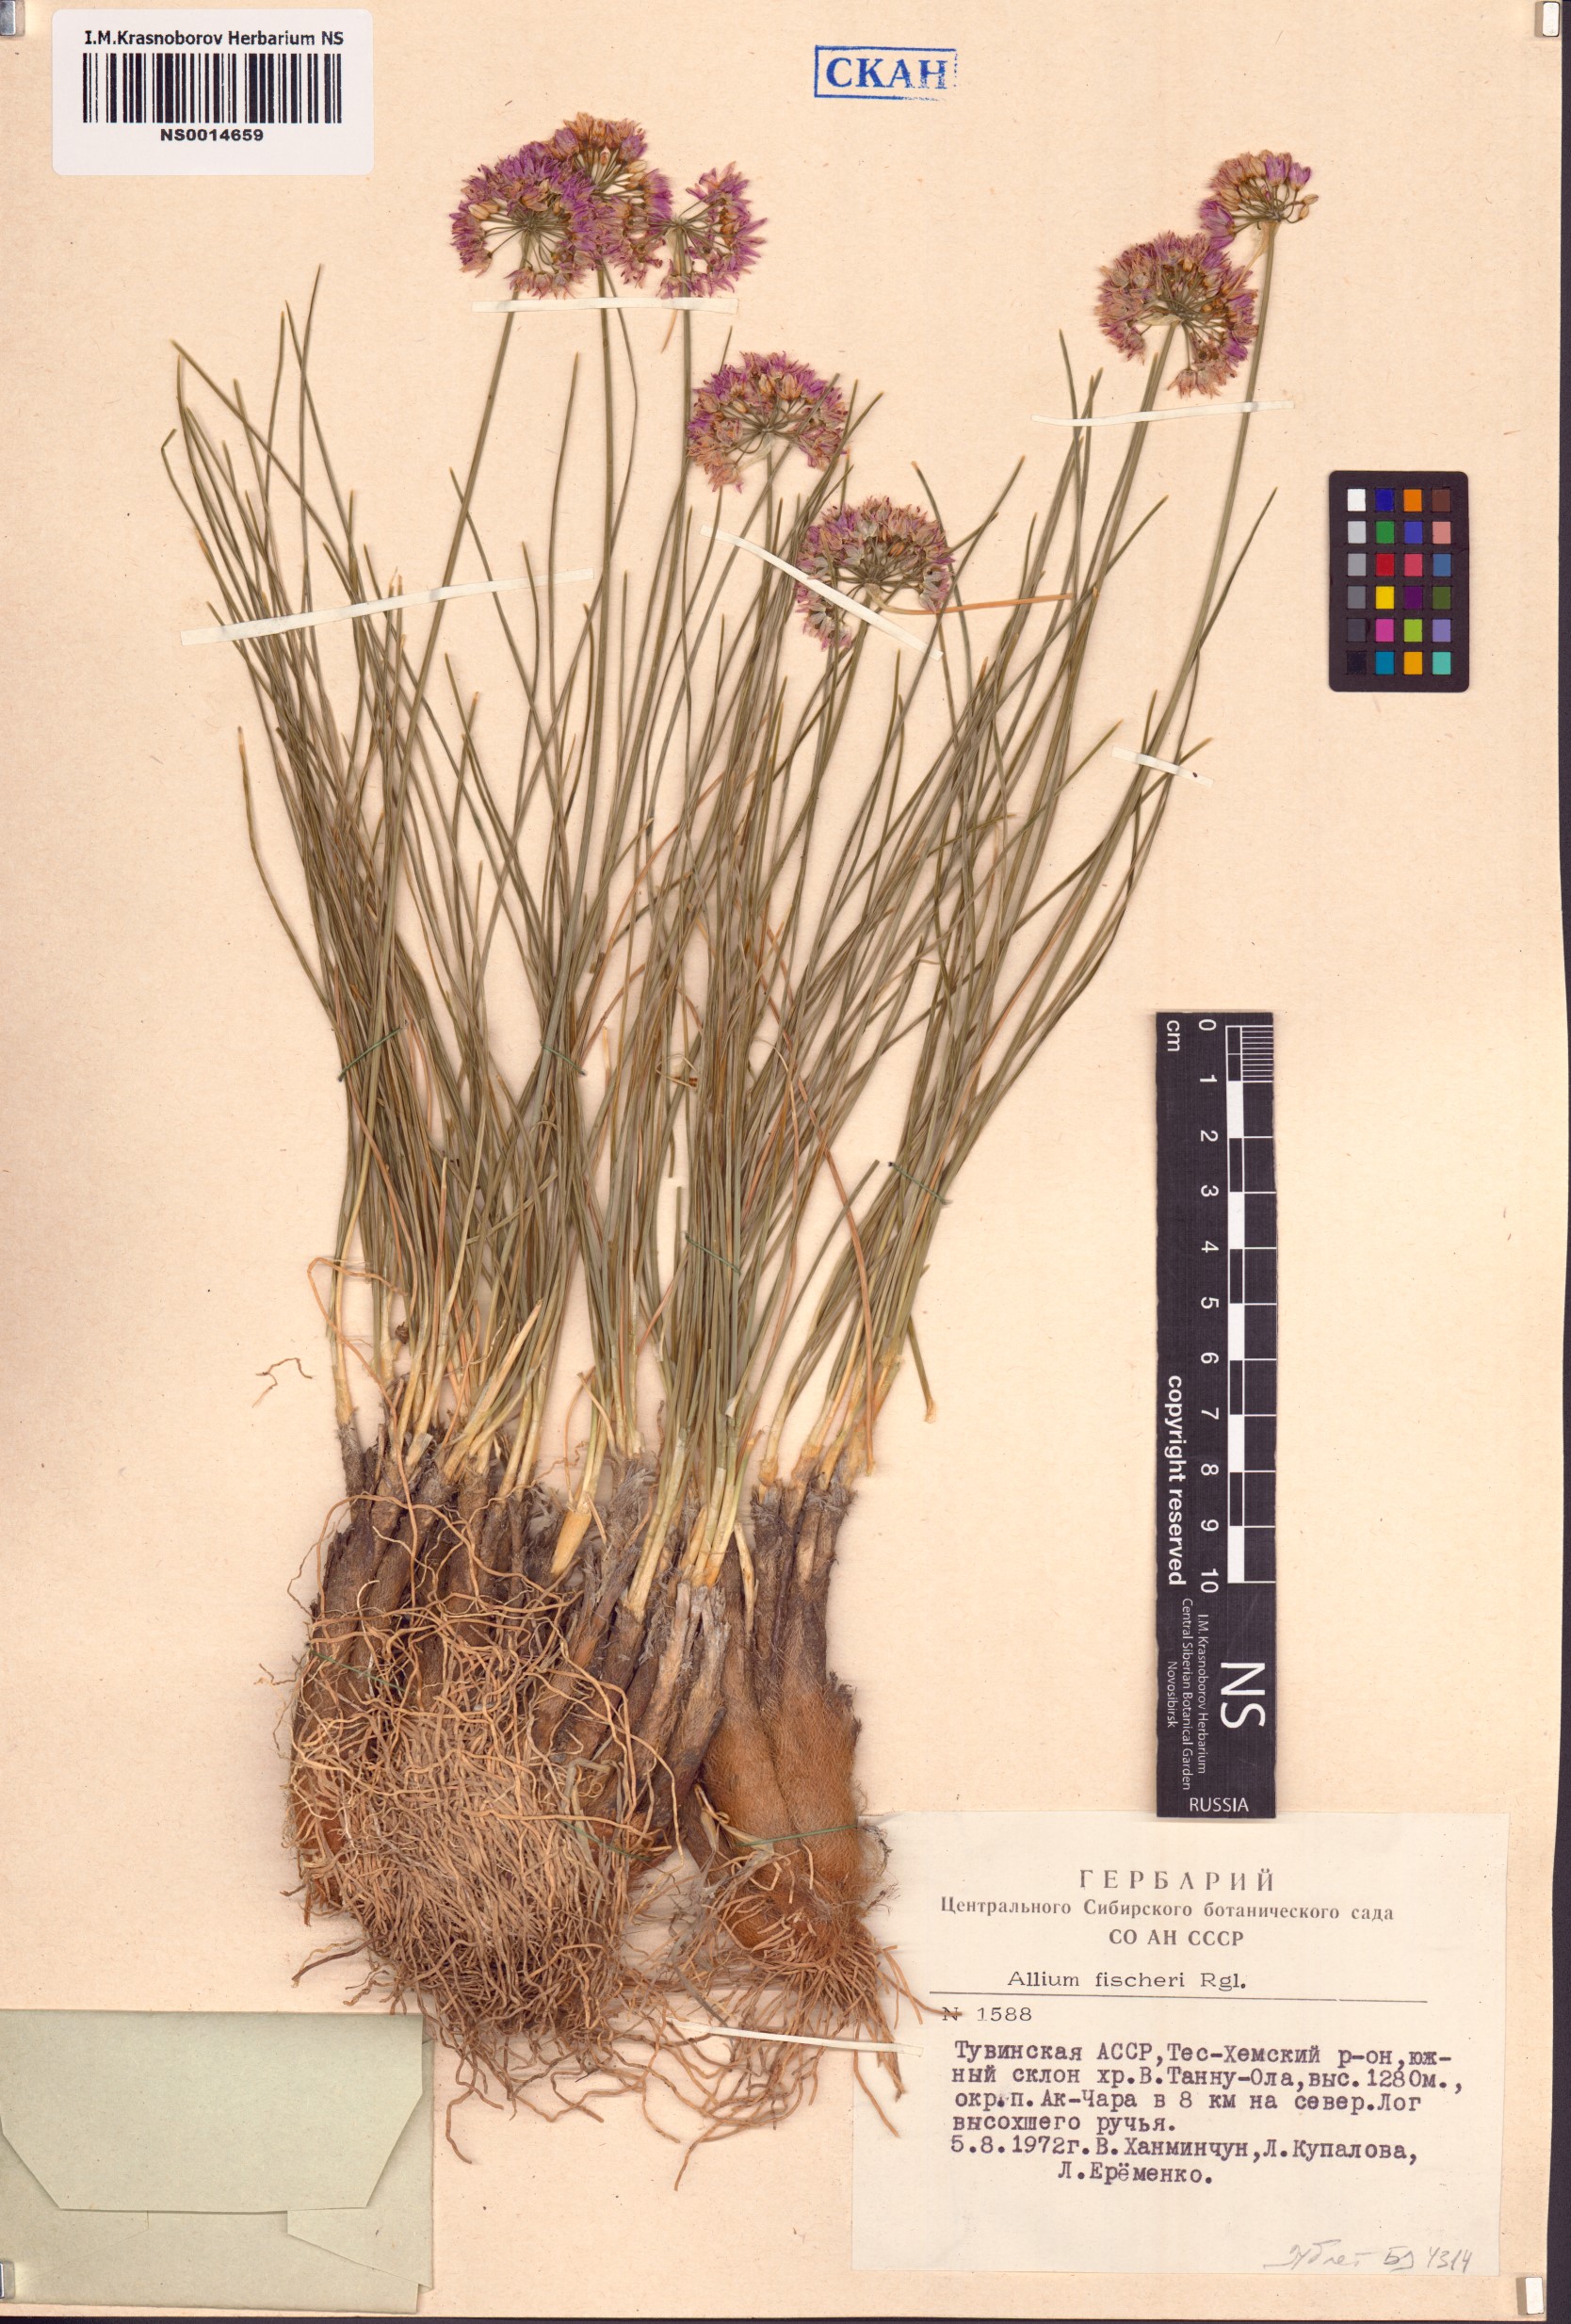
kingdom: Plantae
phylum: Tracheophyta
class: Liliopsida
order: Asparagales
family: Amaryllidaceae
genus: Allium
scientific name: Allium eduardi
